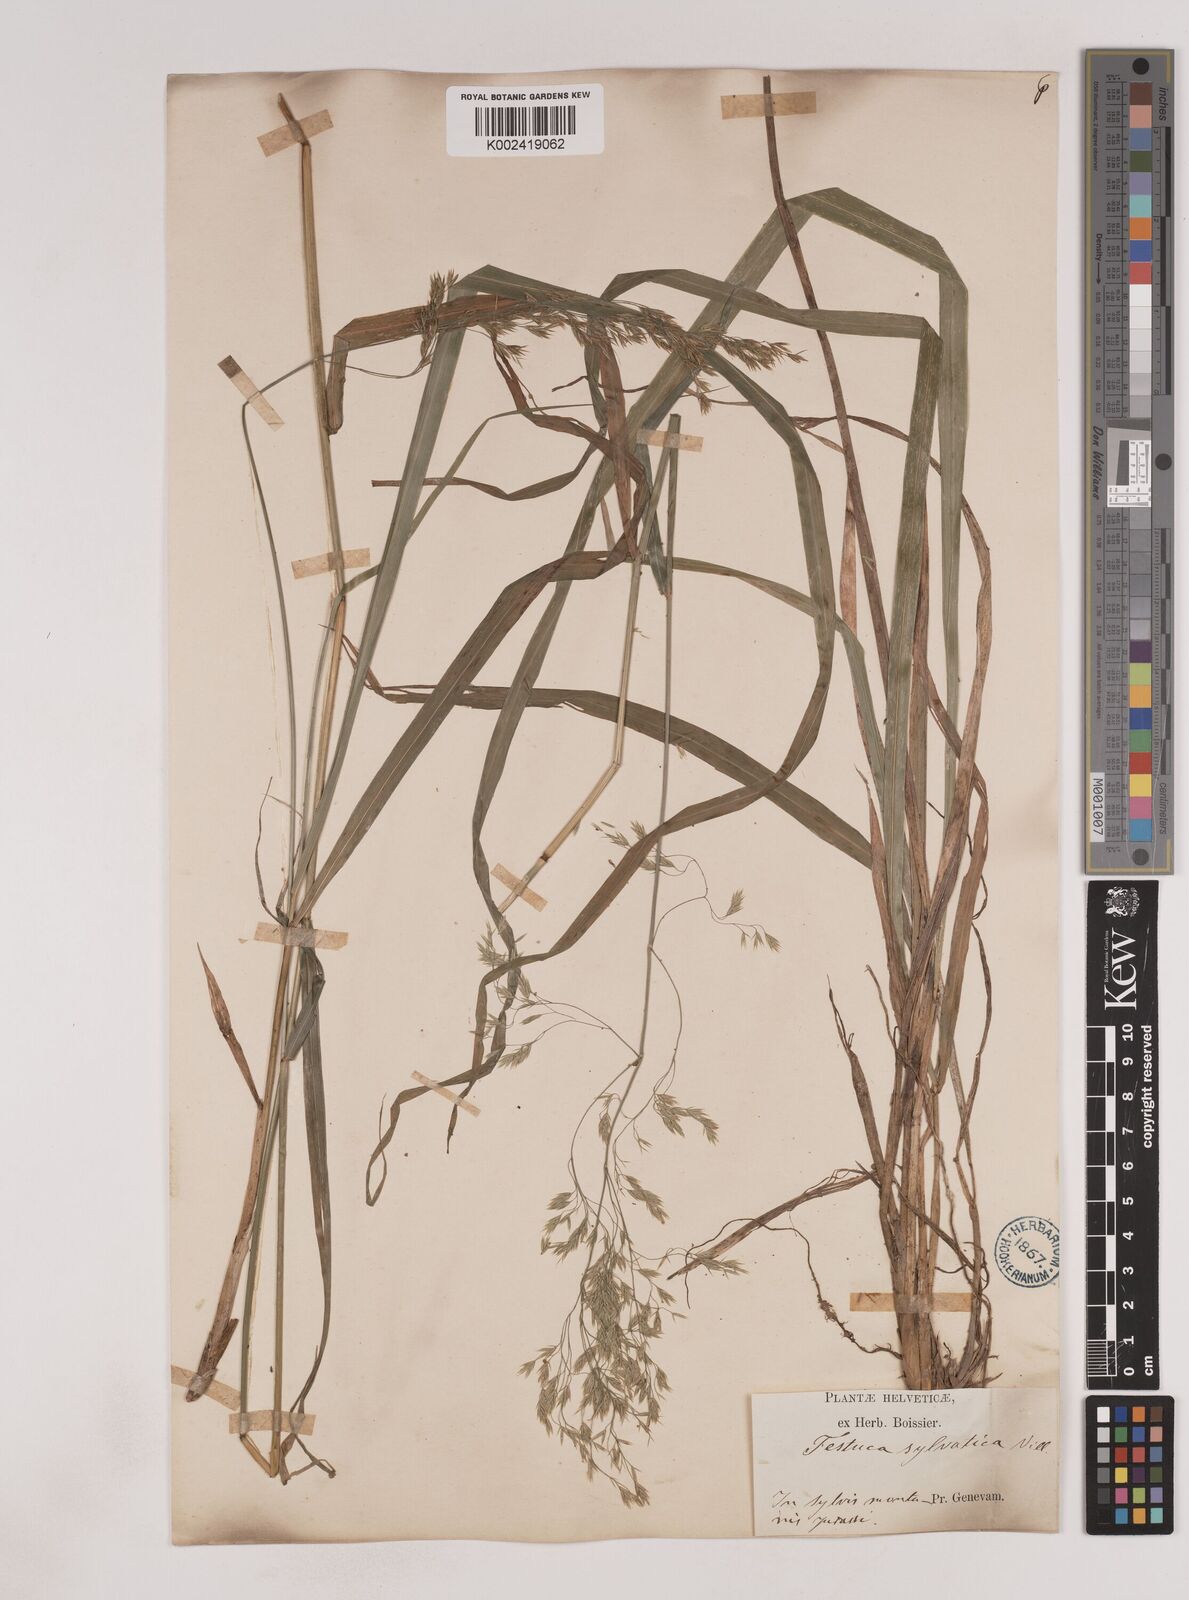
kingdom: Plantae
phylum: Tracheophyta
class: Liliopsida
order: Poales
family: Poaceae
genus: Festuca
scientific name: Festuca drymeja
